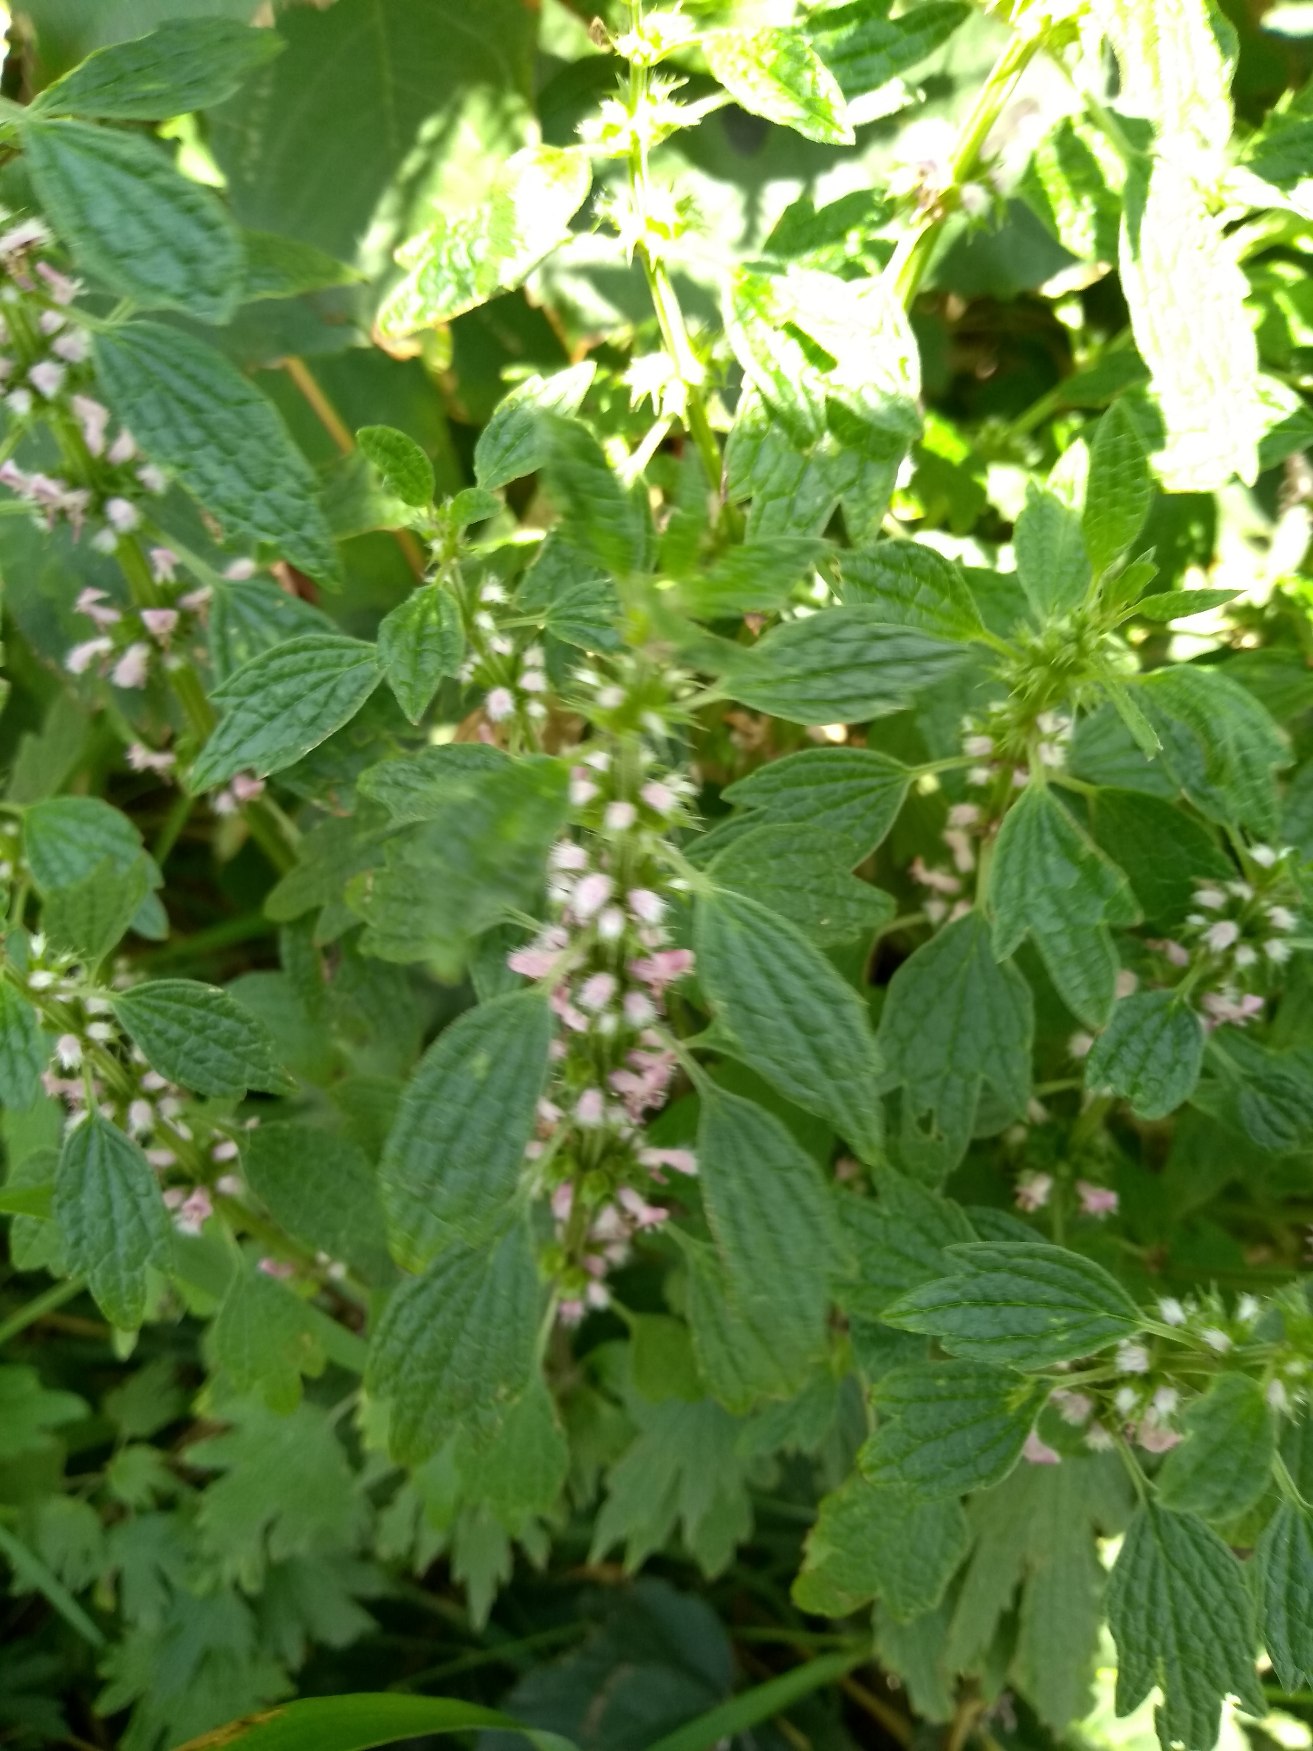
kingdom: Plantae
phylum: Tracheophyta
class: Magnoliopsida
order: Lamiales
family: Lamiaceae
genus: Leonurus
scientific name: Leonurus cardiaca
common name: Hjertespand
